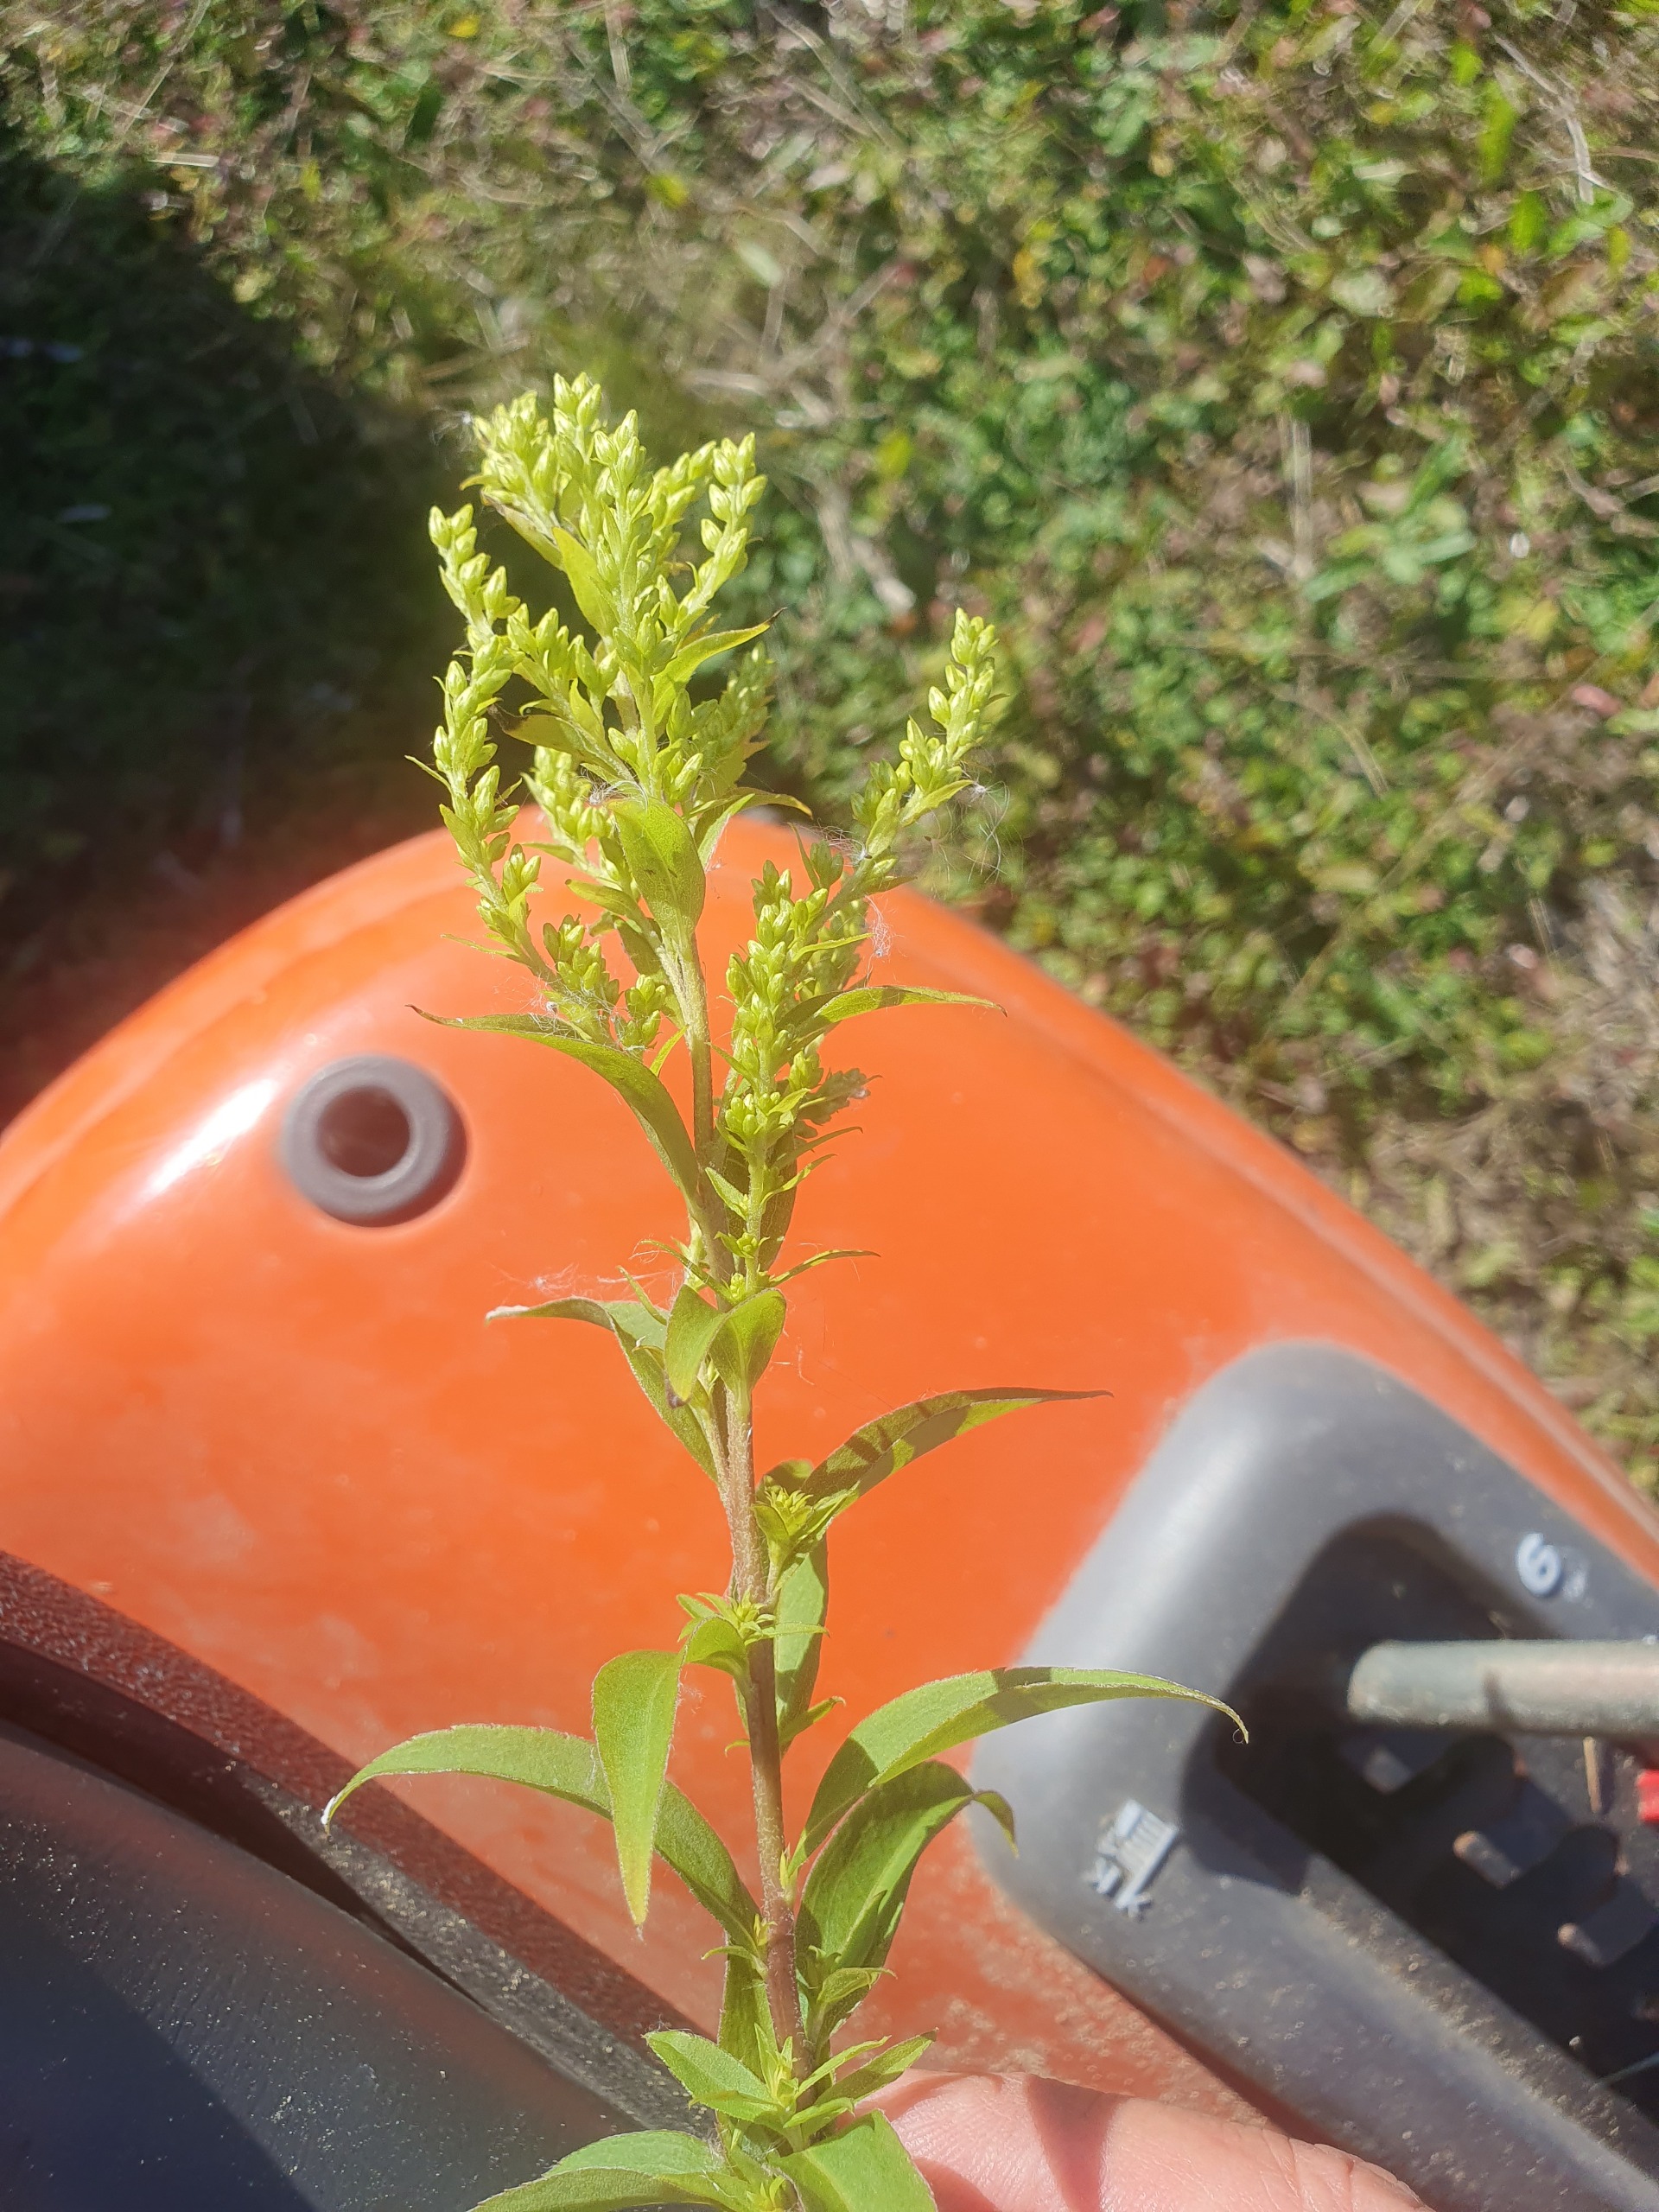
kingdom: Plantae
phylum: Tracheophyta
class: Magnoliopsida
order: Asterales
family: Asteraceae
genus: Solidago
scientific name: Solidago canadensis
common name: Kanadisk gyldenris
